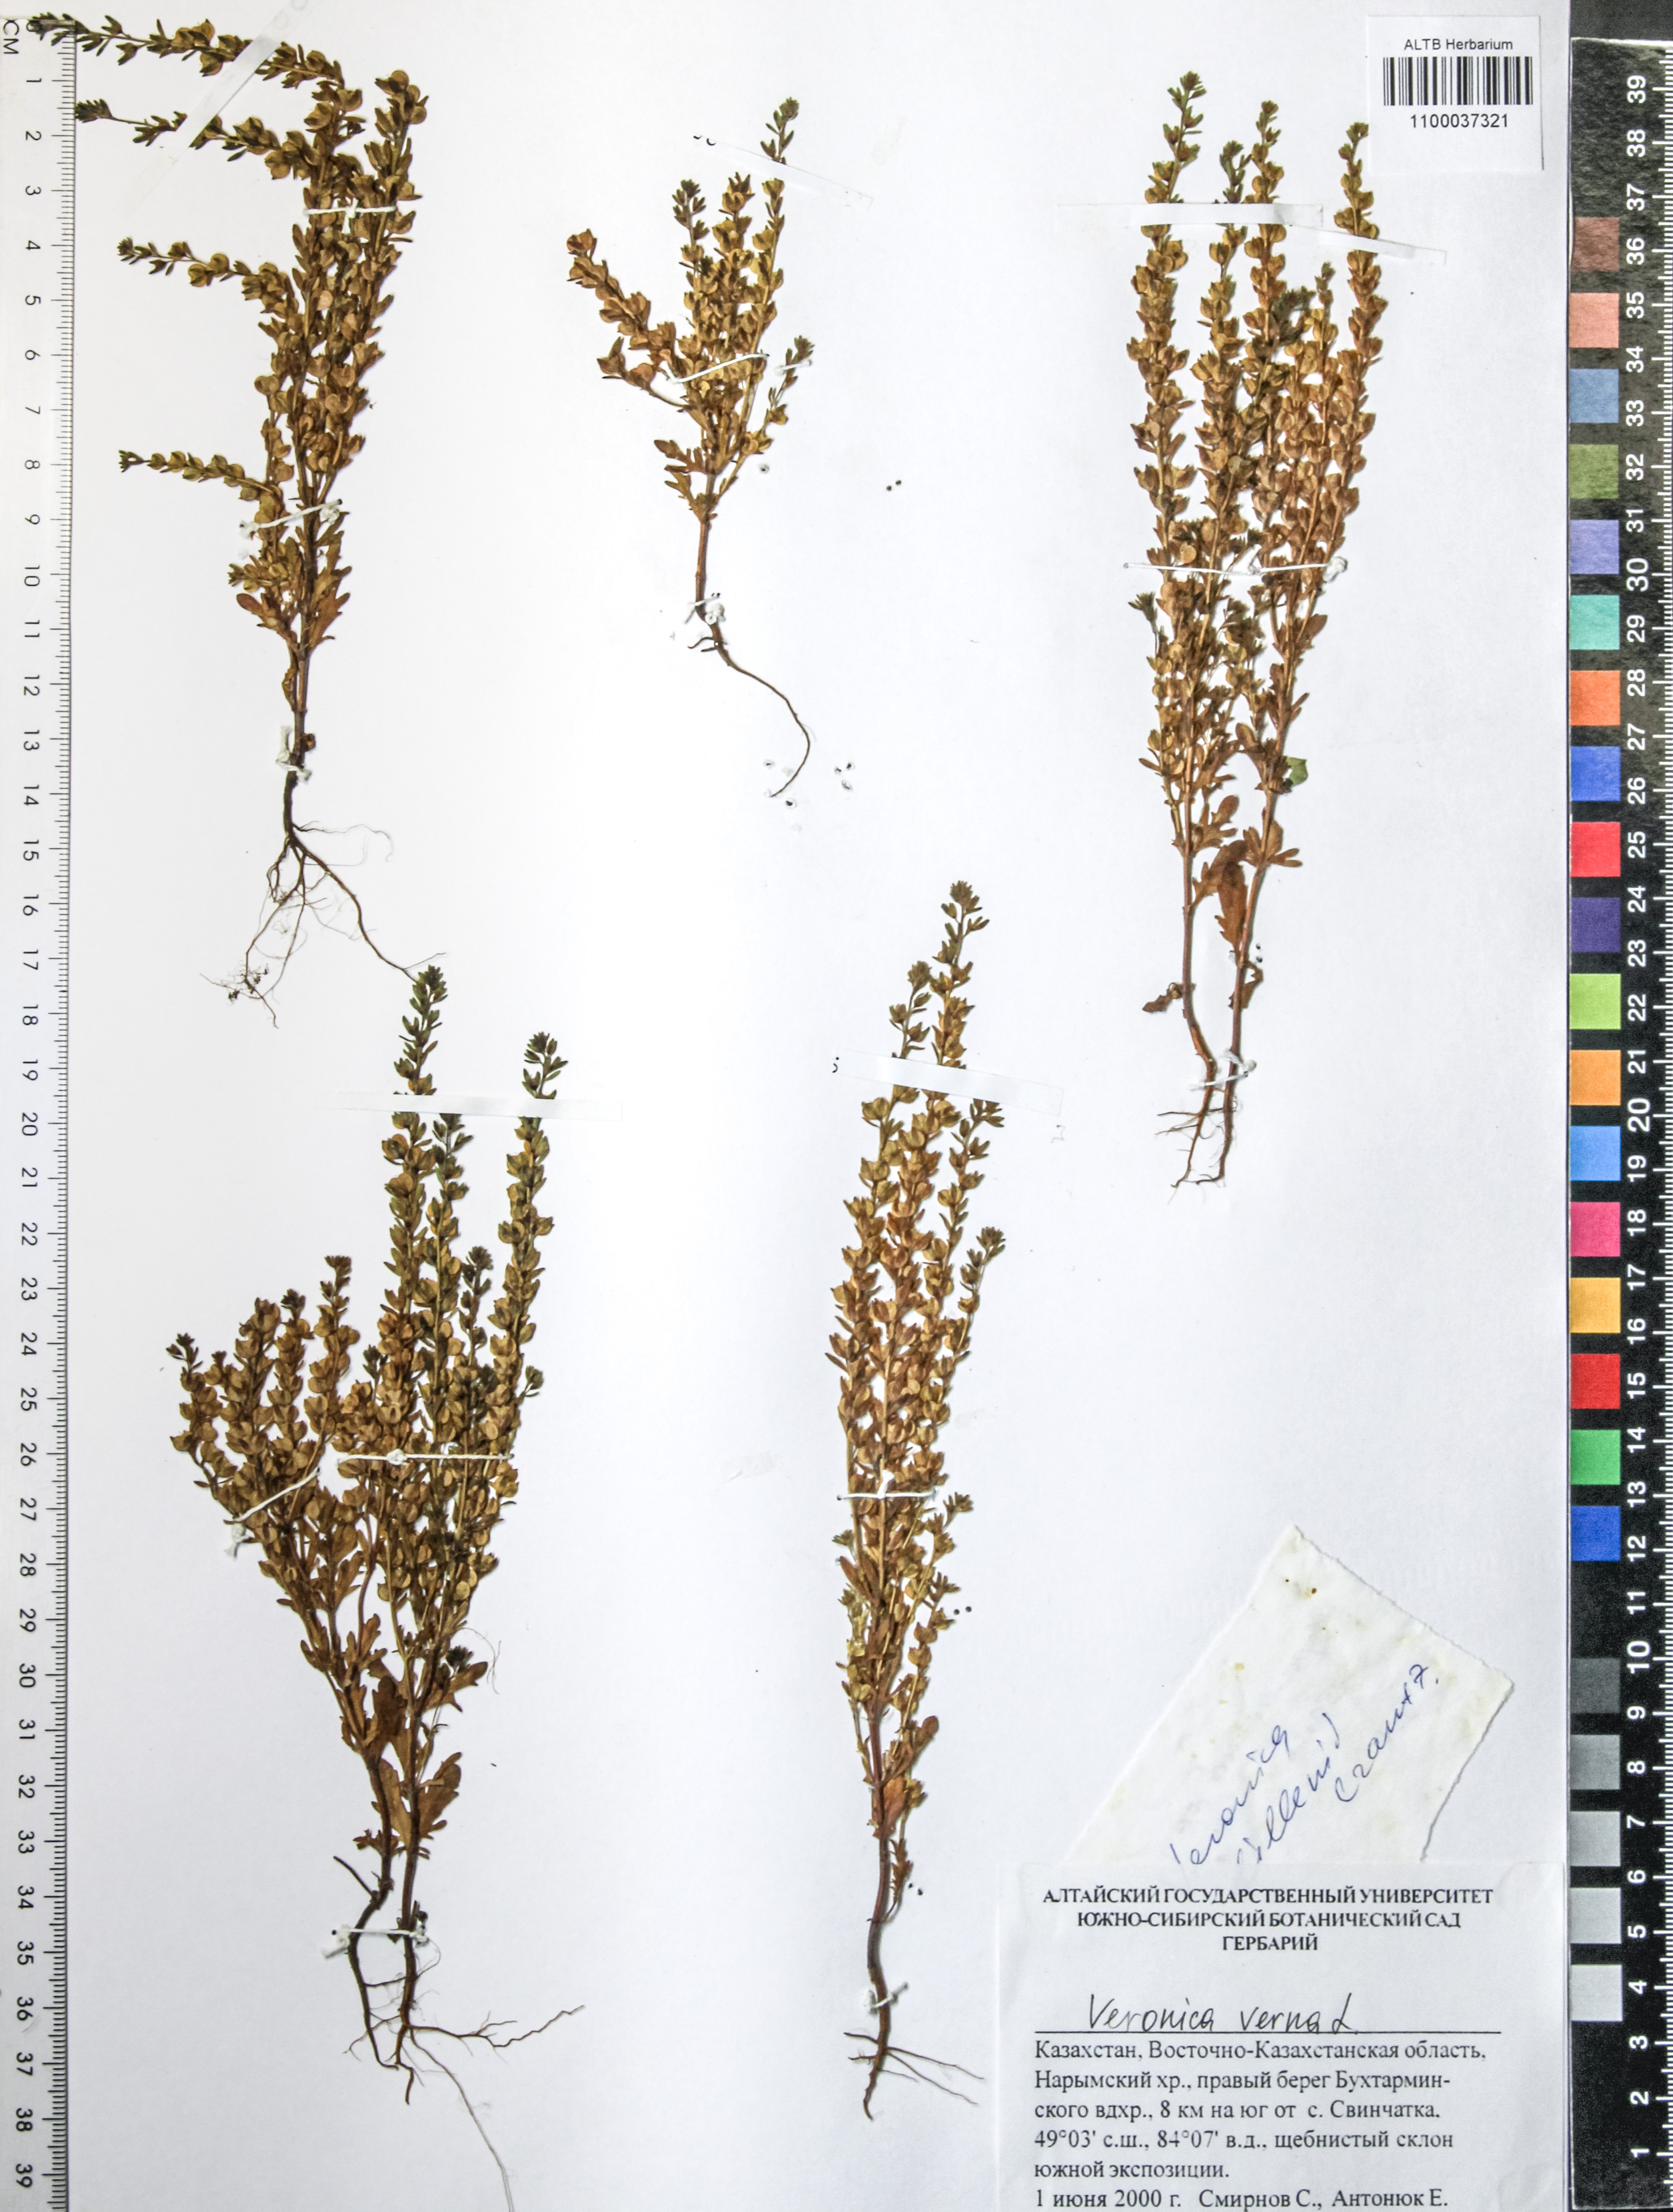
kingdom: Plantae
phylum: Tracheophyta
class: Magnoliopsida
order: Lamiales
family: Plantaginaceae
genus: Veronica
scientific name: Veronica verna
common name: Spring speedwell
